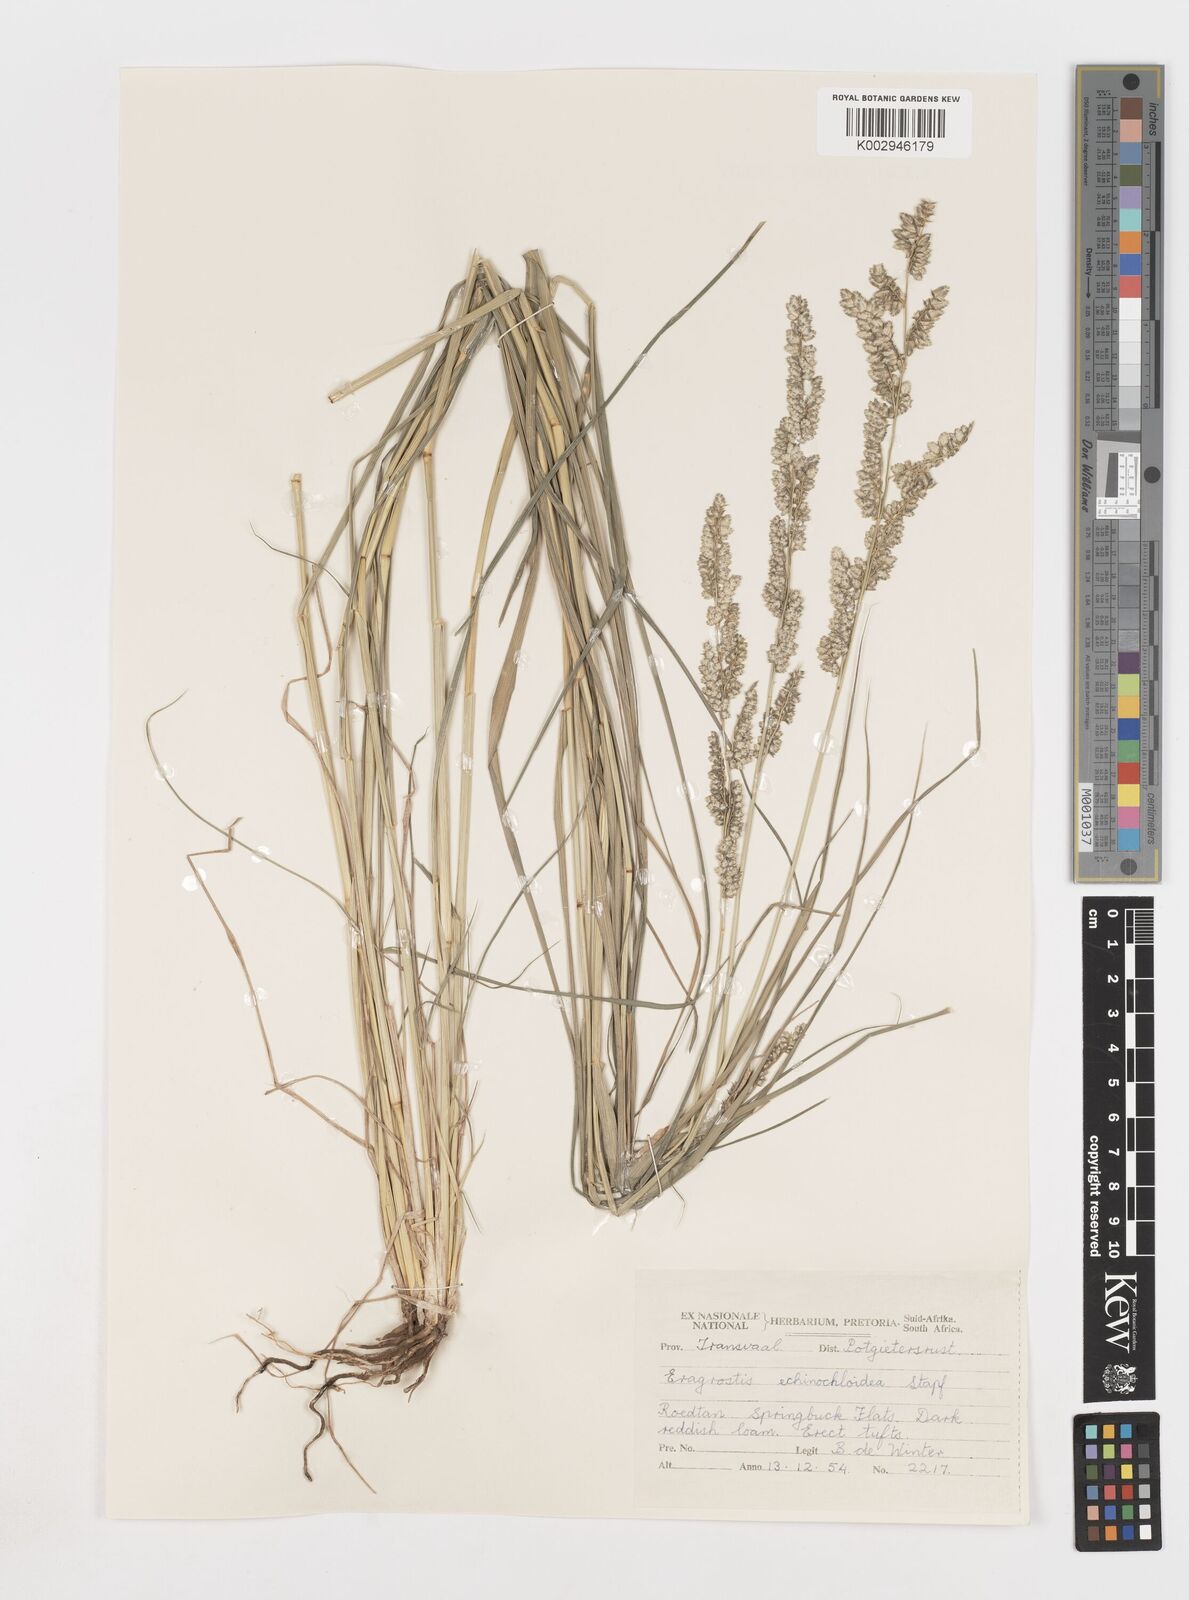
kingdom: Plantae
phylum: Tracheophyta
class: Liliopsida
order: Poales
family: Poaceae
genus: Eragrostis
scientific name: Eragrostis echinochloidea
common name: African lovegrass
